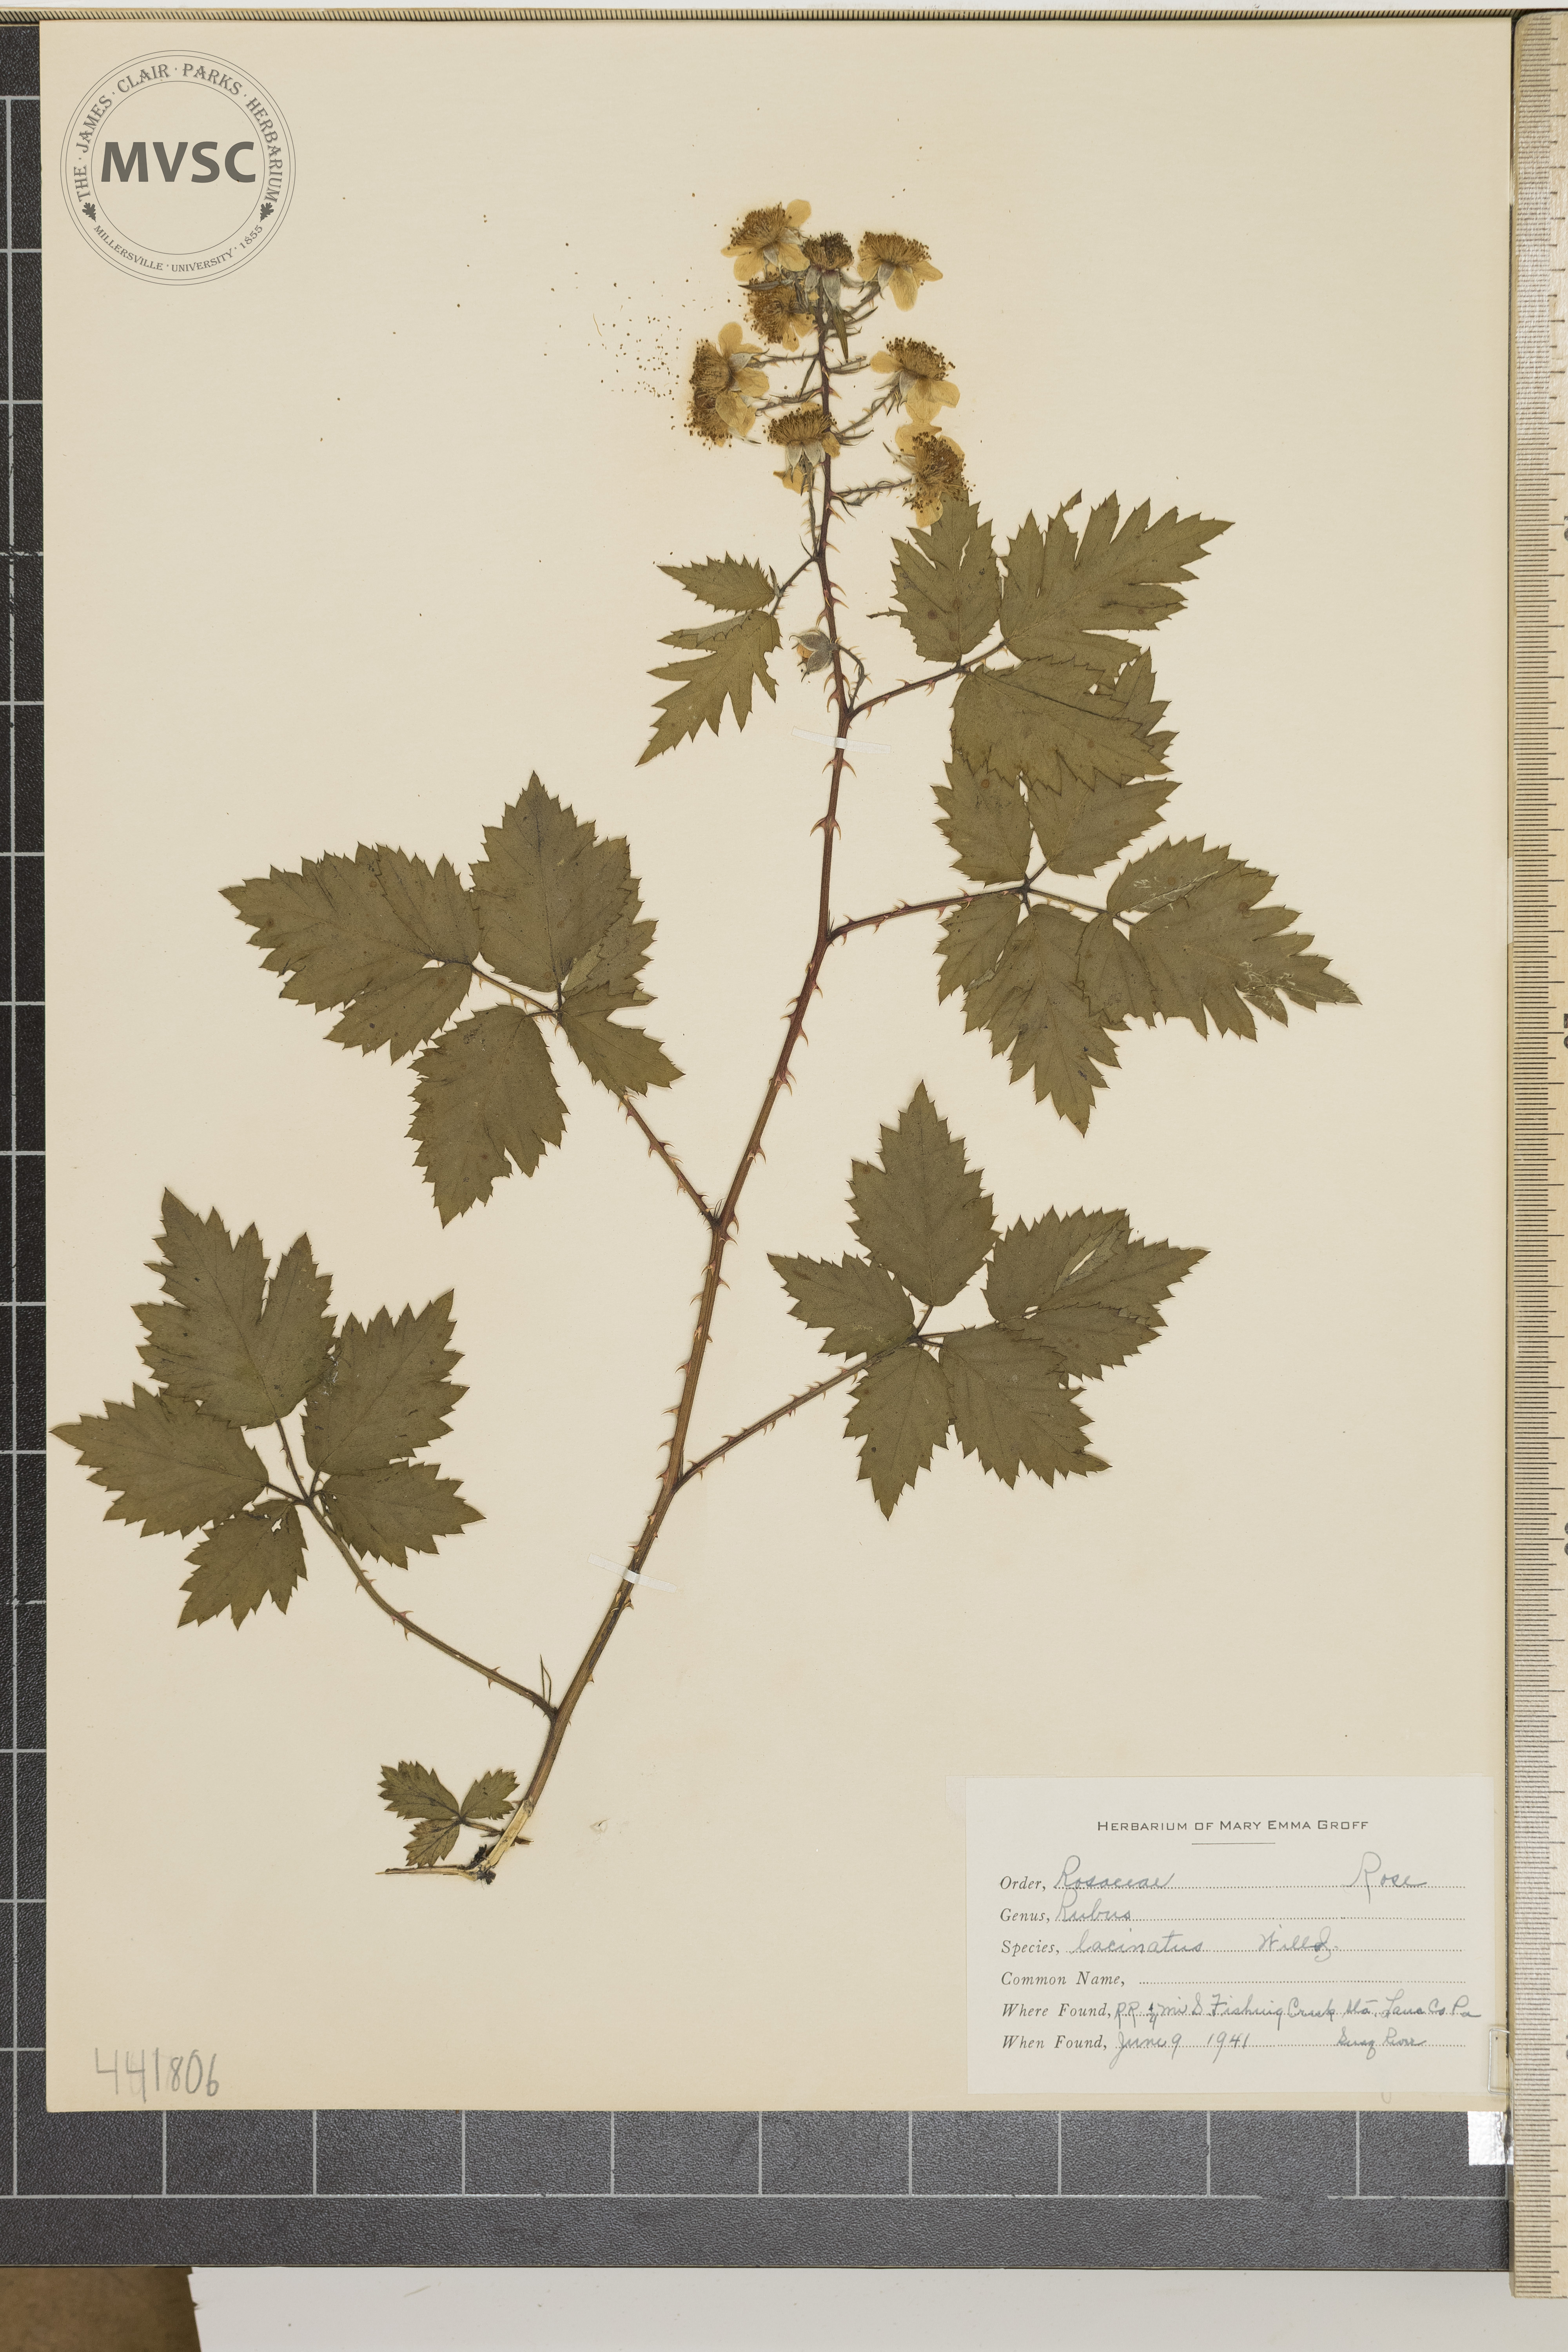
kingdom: Plantae
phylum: Tracheophyta
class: Magnoliopsida
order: Rosales
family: Rosaceae
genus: Rubus
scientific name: Rubus laciniatus
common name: Evergreen blackberry
